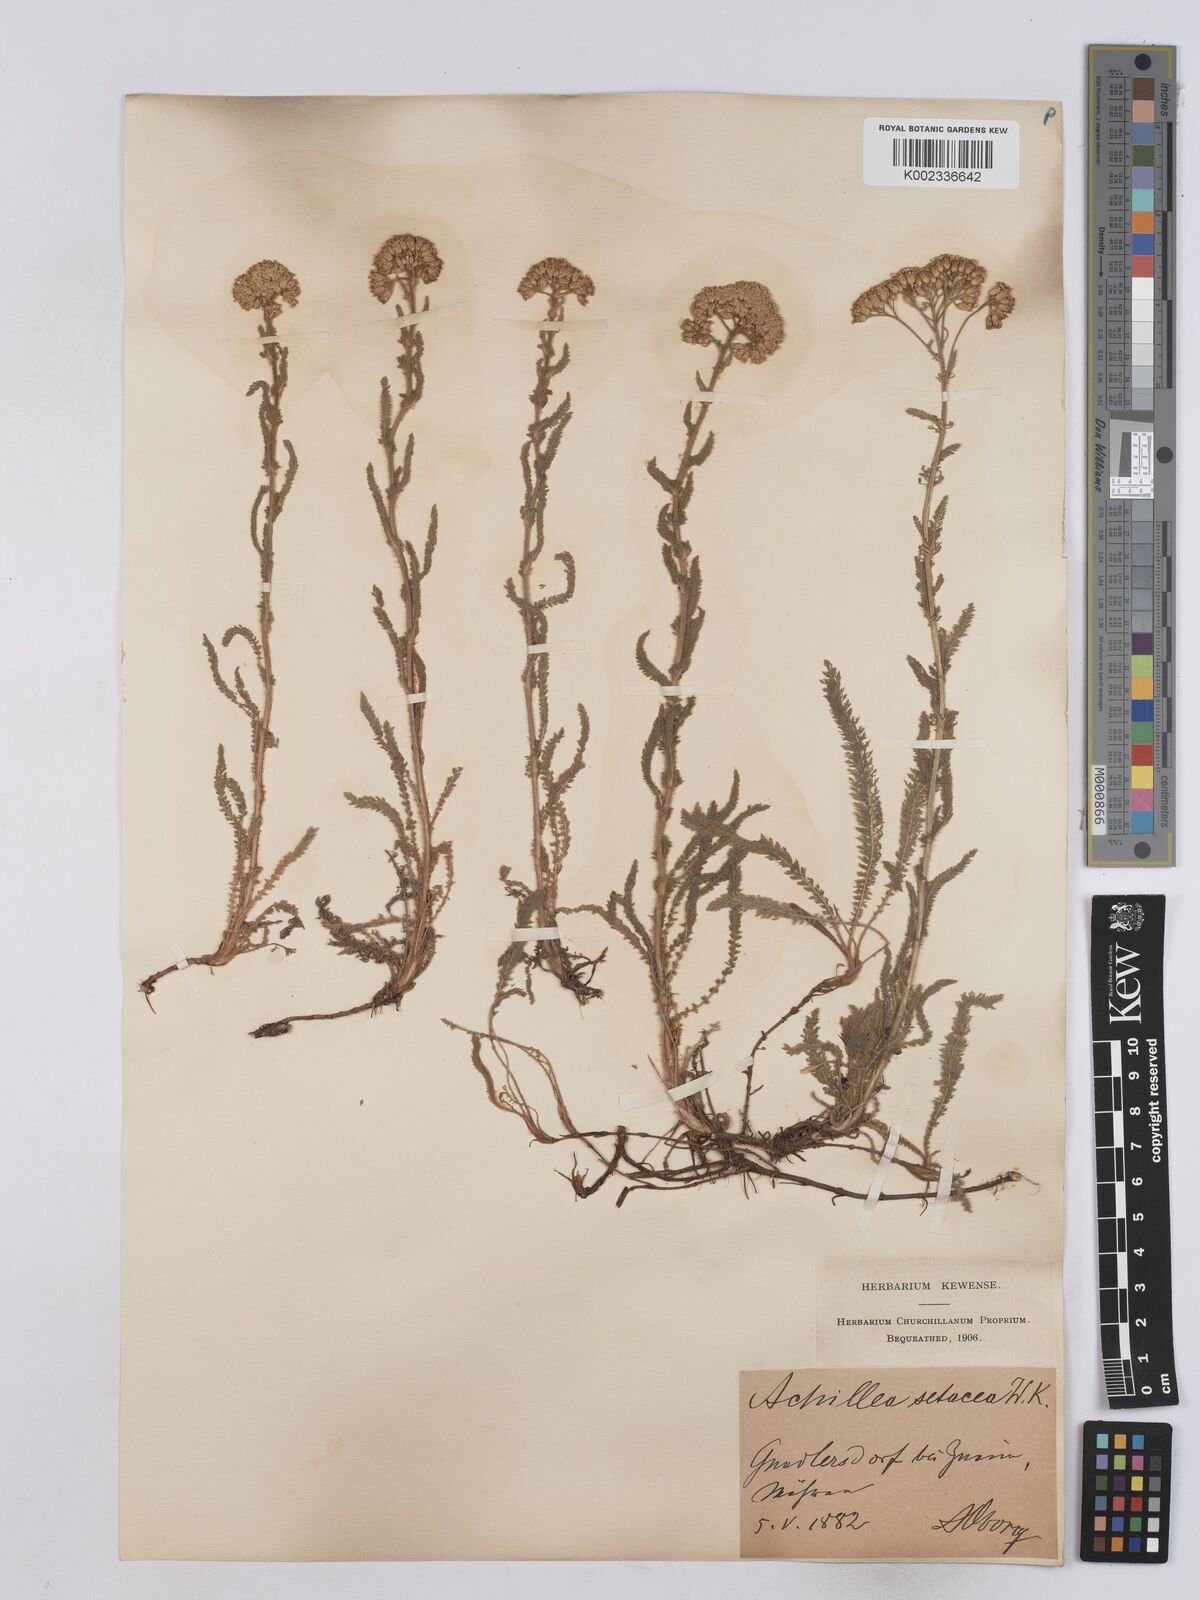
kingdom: Plantae
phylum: Tracheophyta
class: Magnoliopsida
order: Asterales
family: Asteraceae
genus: Achillea
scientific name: Achillea setacea
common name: Bristly yarrow
